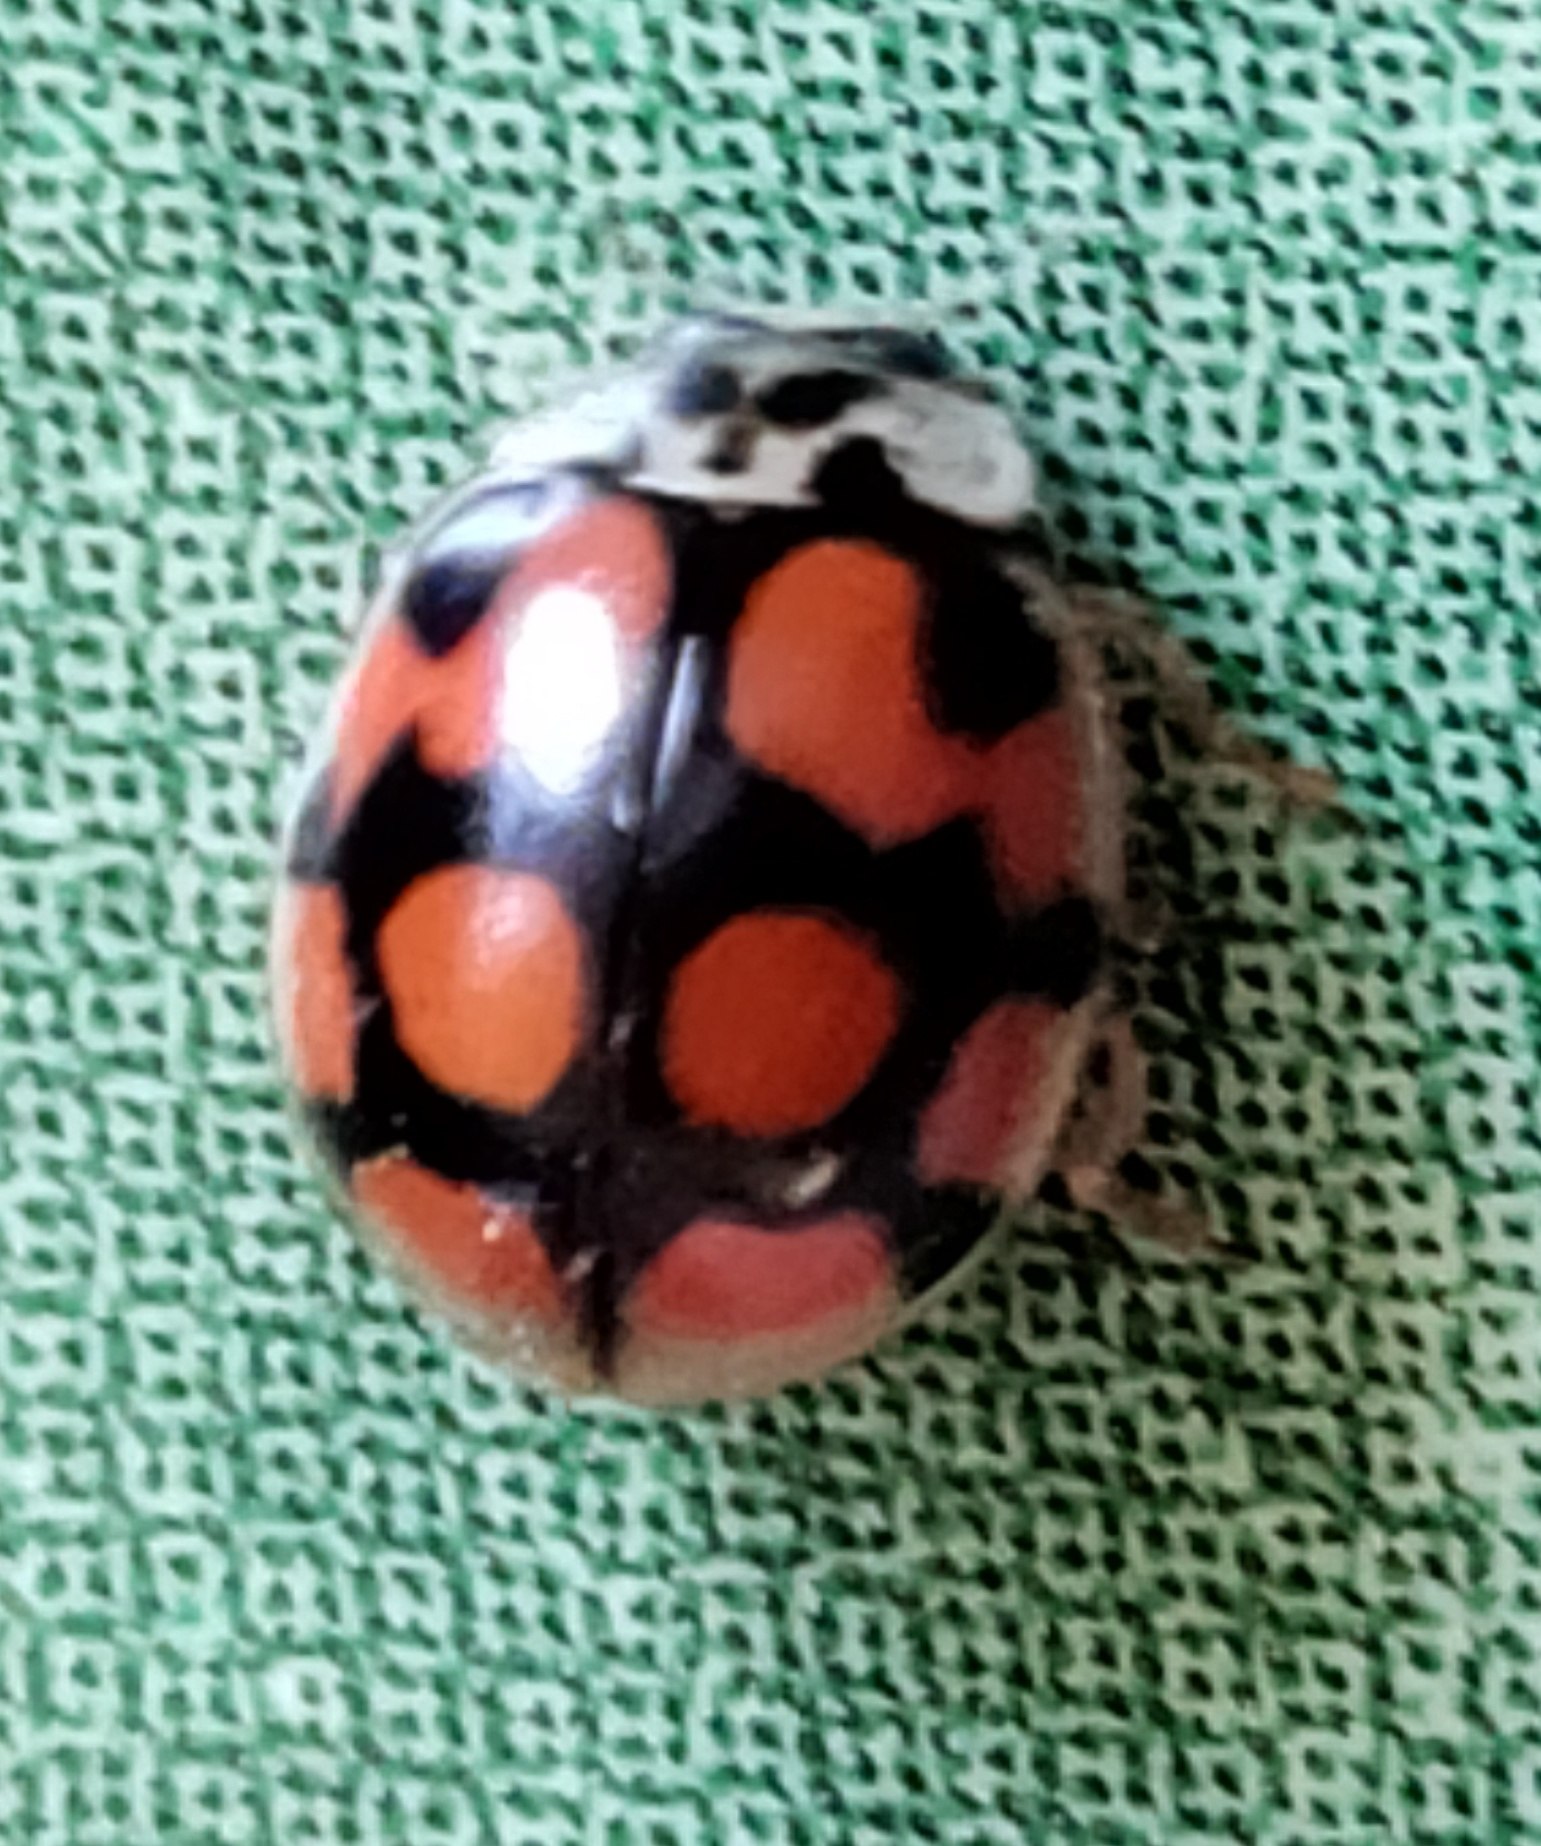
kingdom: Animalia
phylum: Arthropoda
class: Insecta
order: Coleoptera
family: Coccinellidae
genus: Adalia
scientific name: Adalia decempunctata
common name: Tiplettet mariehøne
